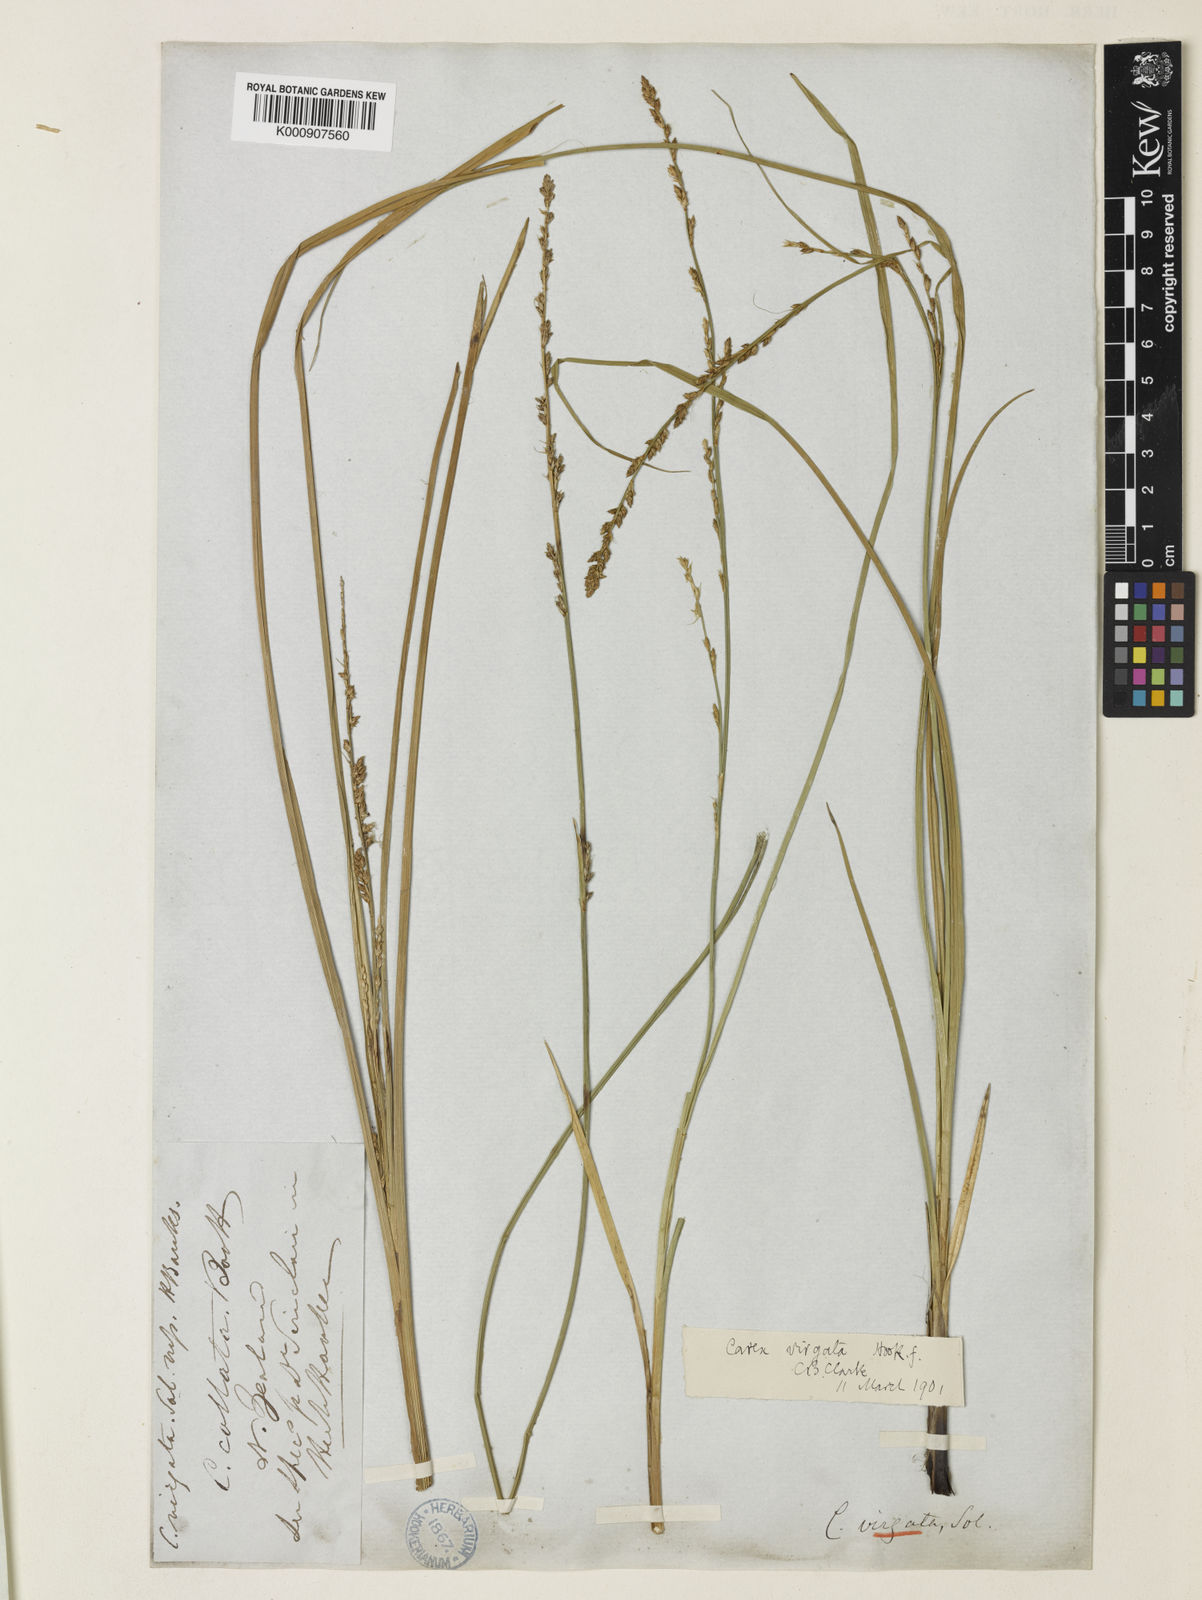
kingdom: Plantae
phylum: Tracheophyta
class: Liliopsida
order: Poales
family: Cyperaceae
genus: Carex
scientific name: Carex appressa
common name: Tussock sedge
